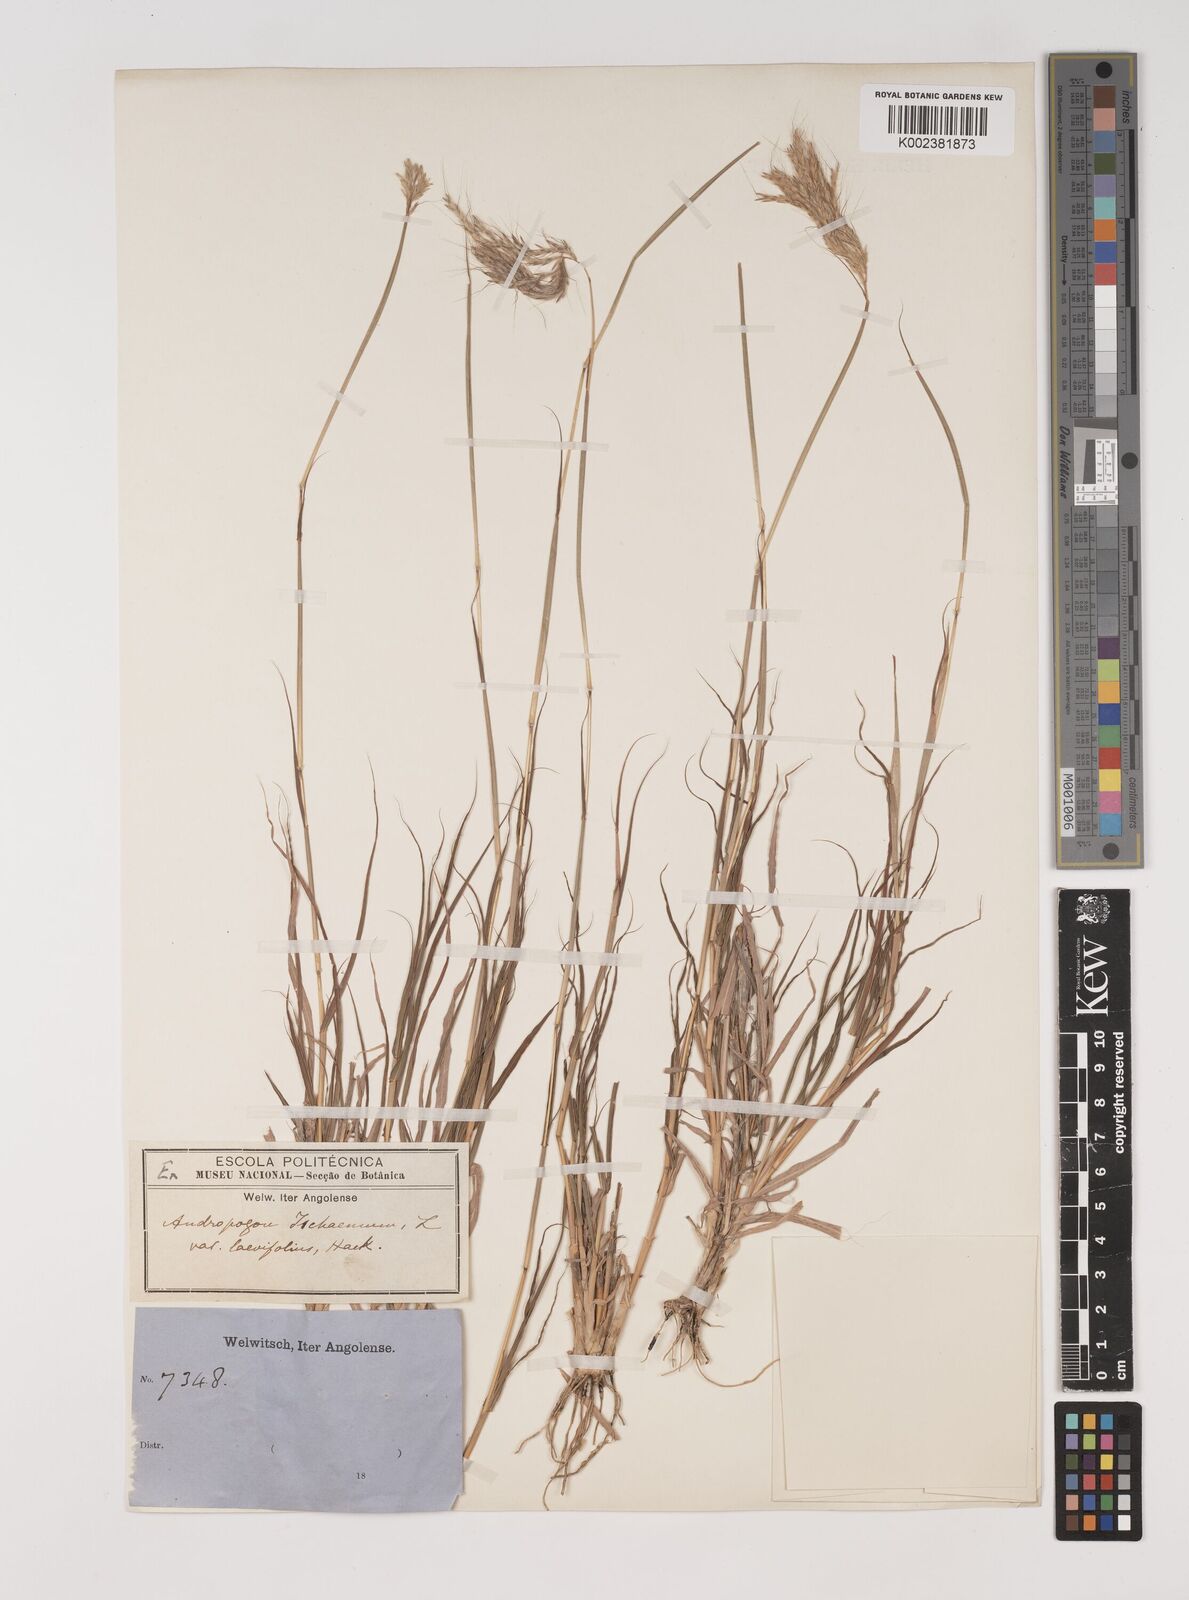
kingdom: Plantae
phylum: Tracheophyta
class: Liliopsida
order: Poales
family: Poaceae
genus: Bothriochloa
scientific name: Bothriochloa radicans
